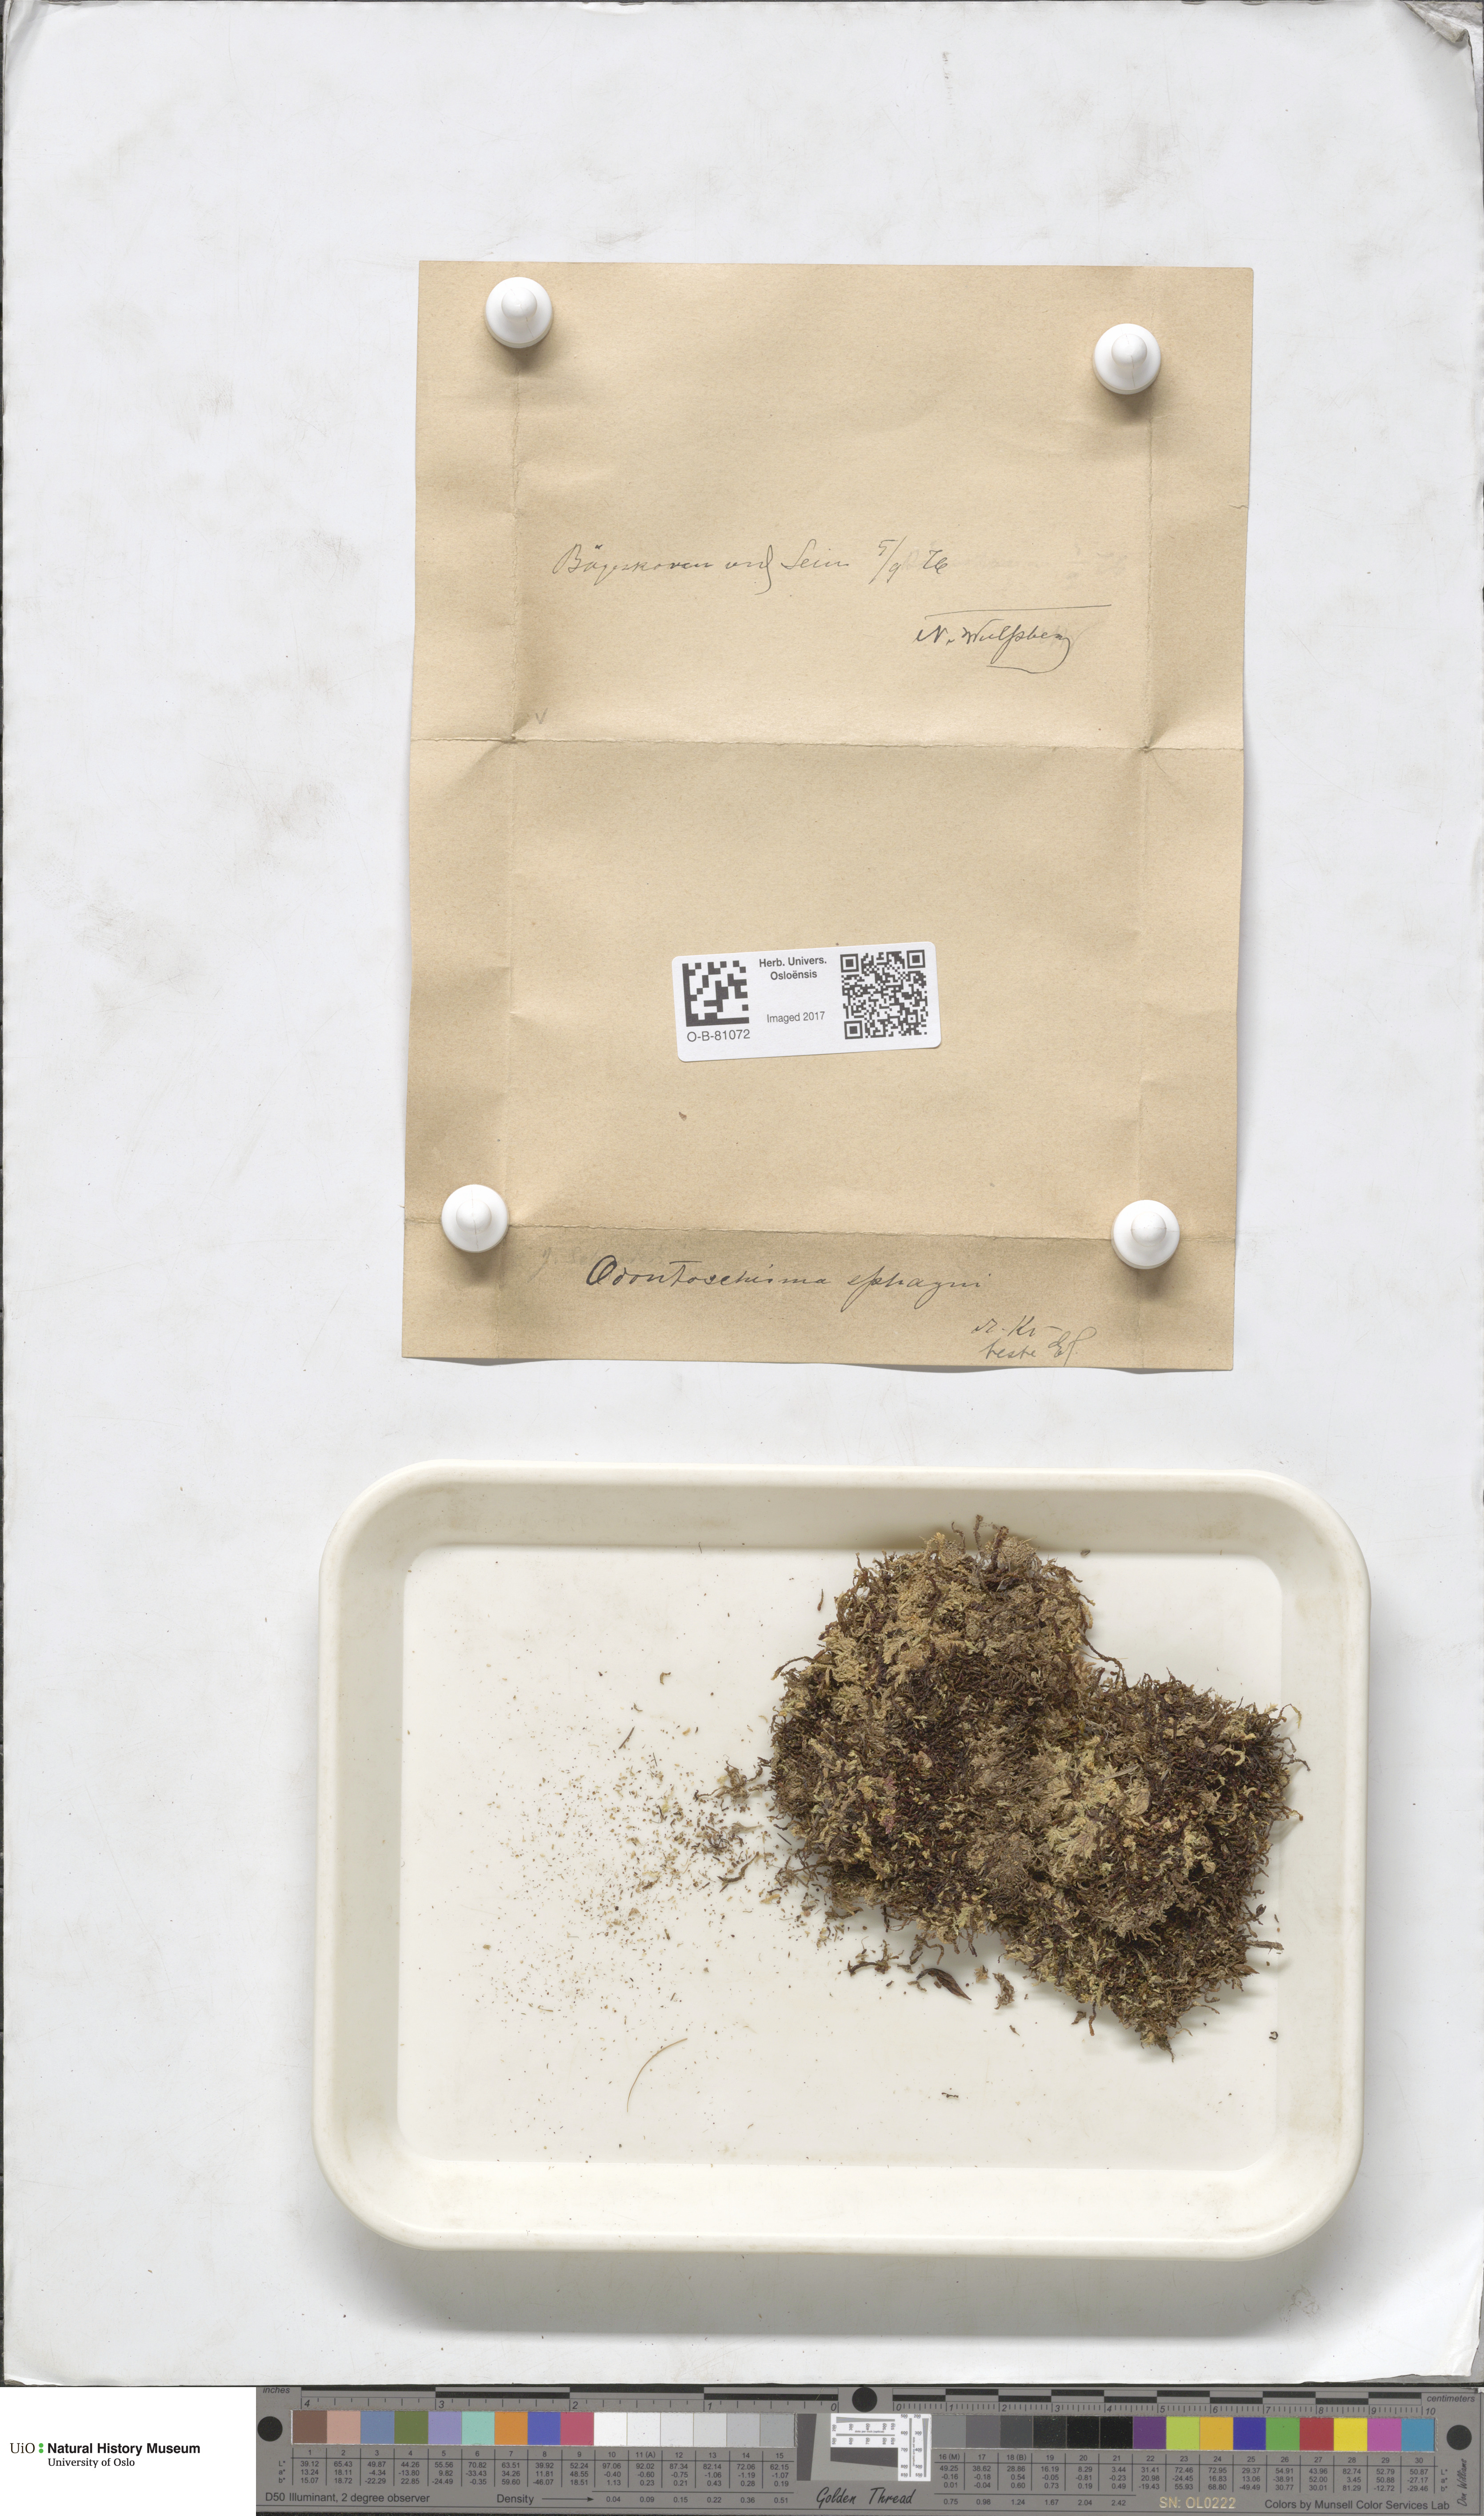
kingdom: Plantae
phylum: Marchantiophyta
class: Jungermanniopsida
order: Jungermanniales
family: Cephaloziaceae
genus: Odontoschisma
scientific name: Odontoschisma sphagni
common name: Bog-moss flapwort
